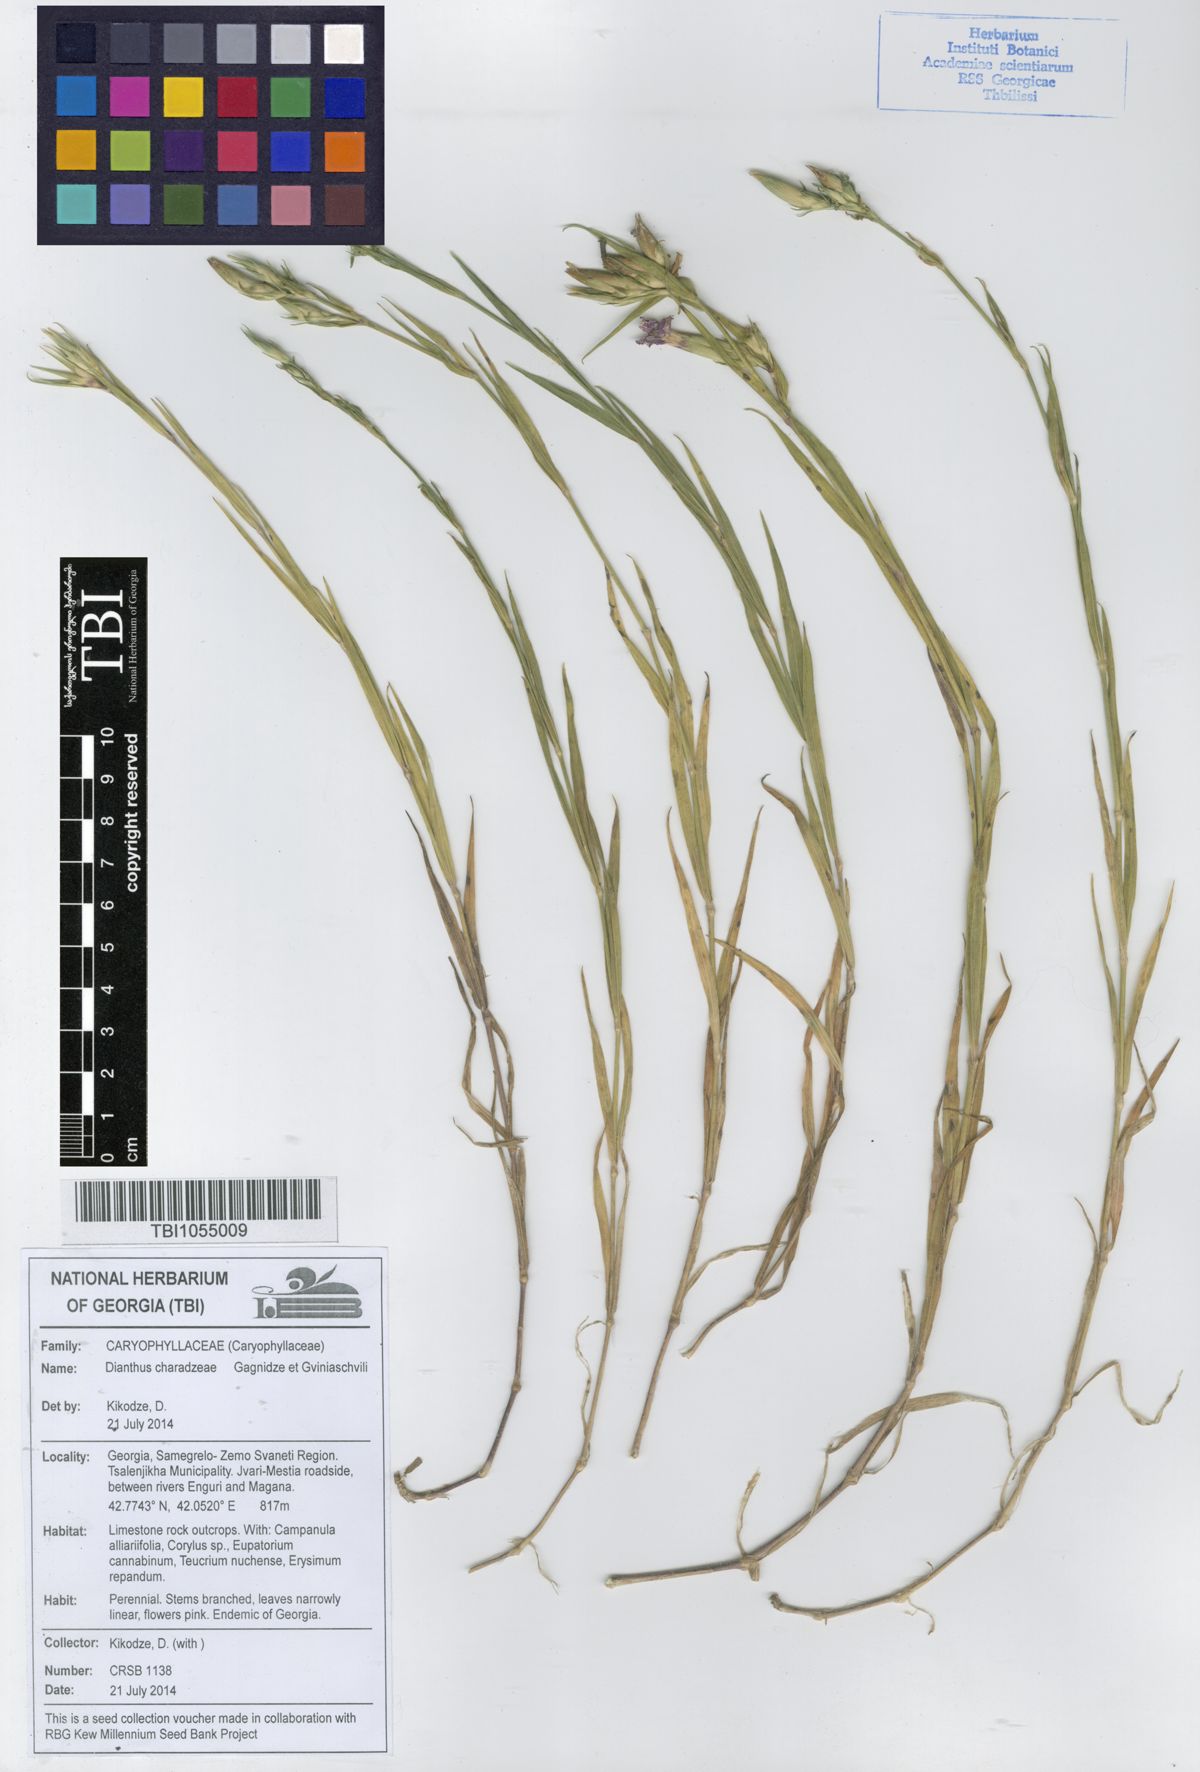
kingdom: Plantae
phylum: Tracheophyta
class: Magnoliopsida
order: Caryophyllales
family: Caryophyllaceae
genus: Dianthus
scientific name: Dianthus
